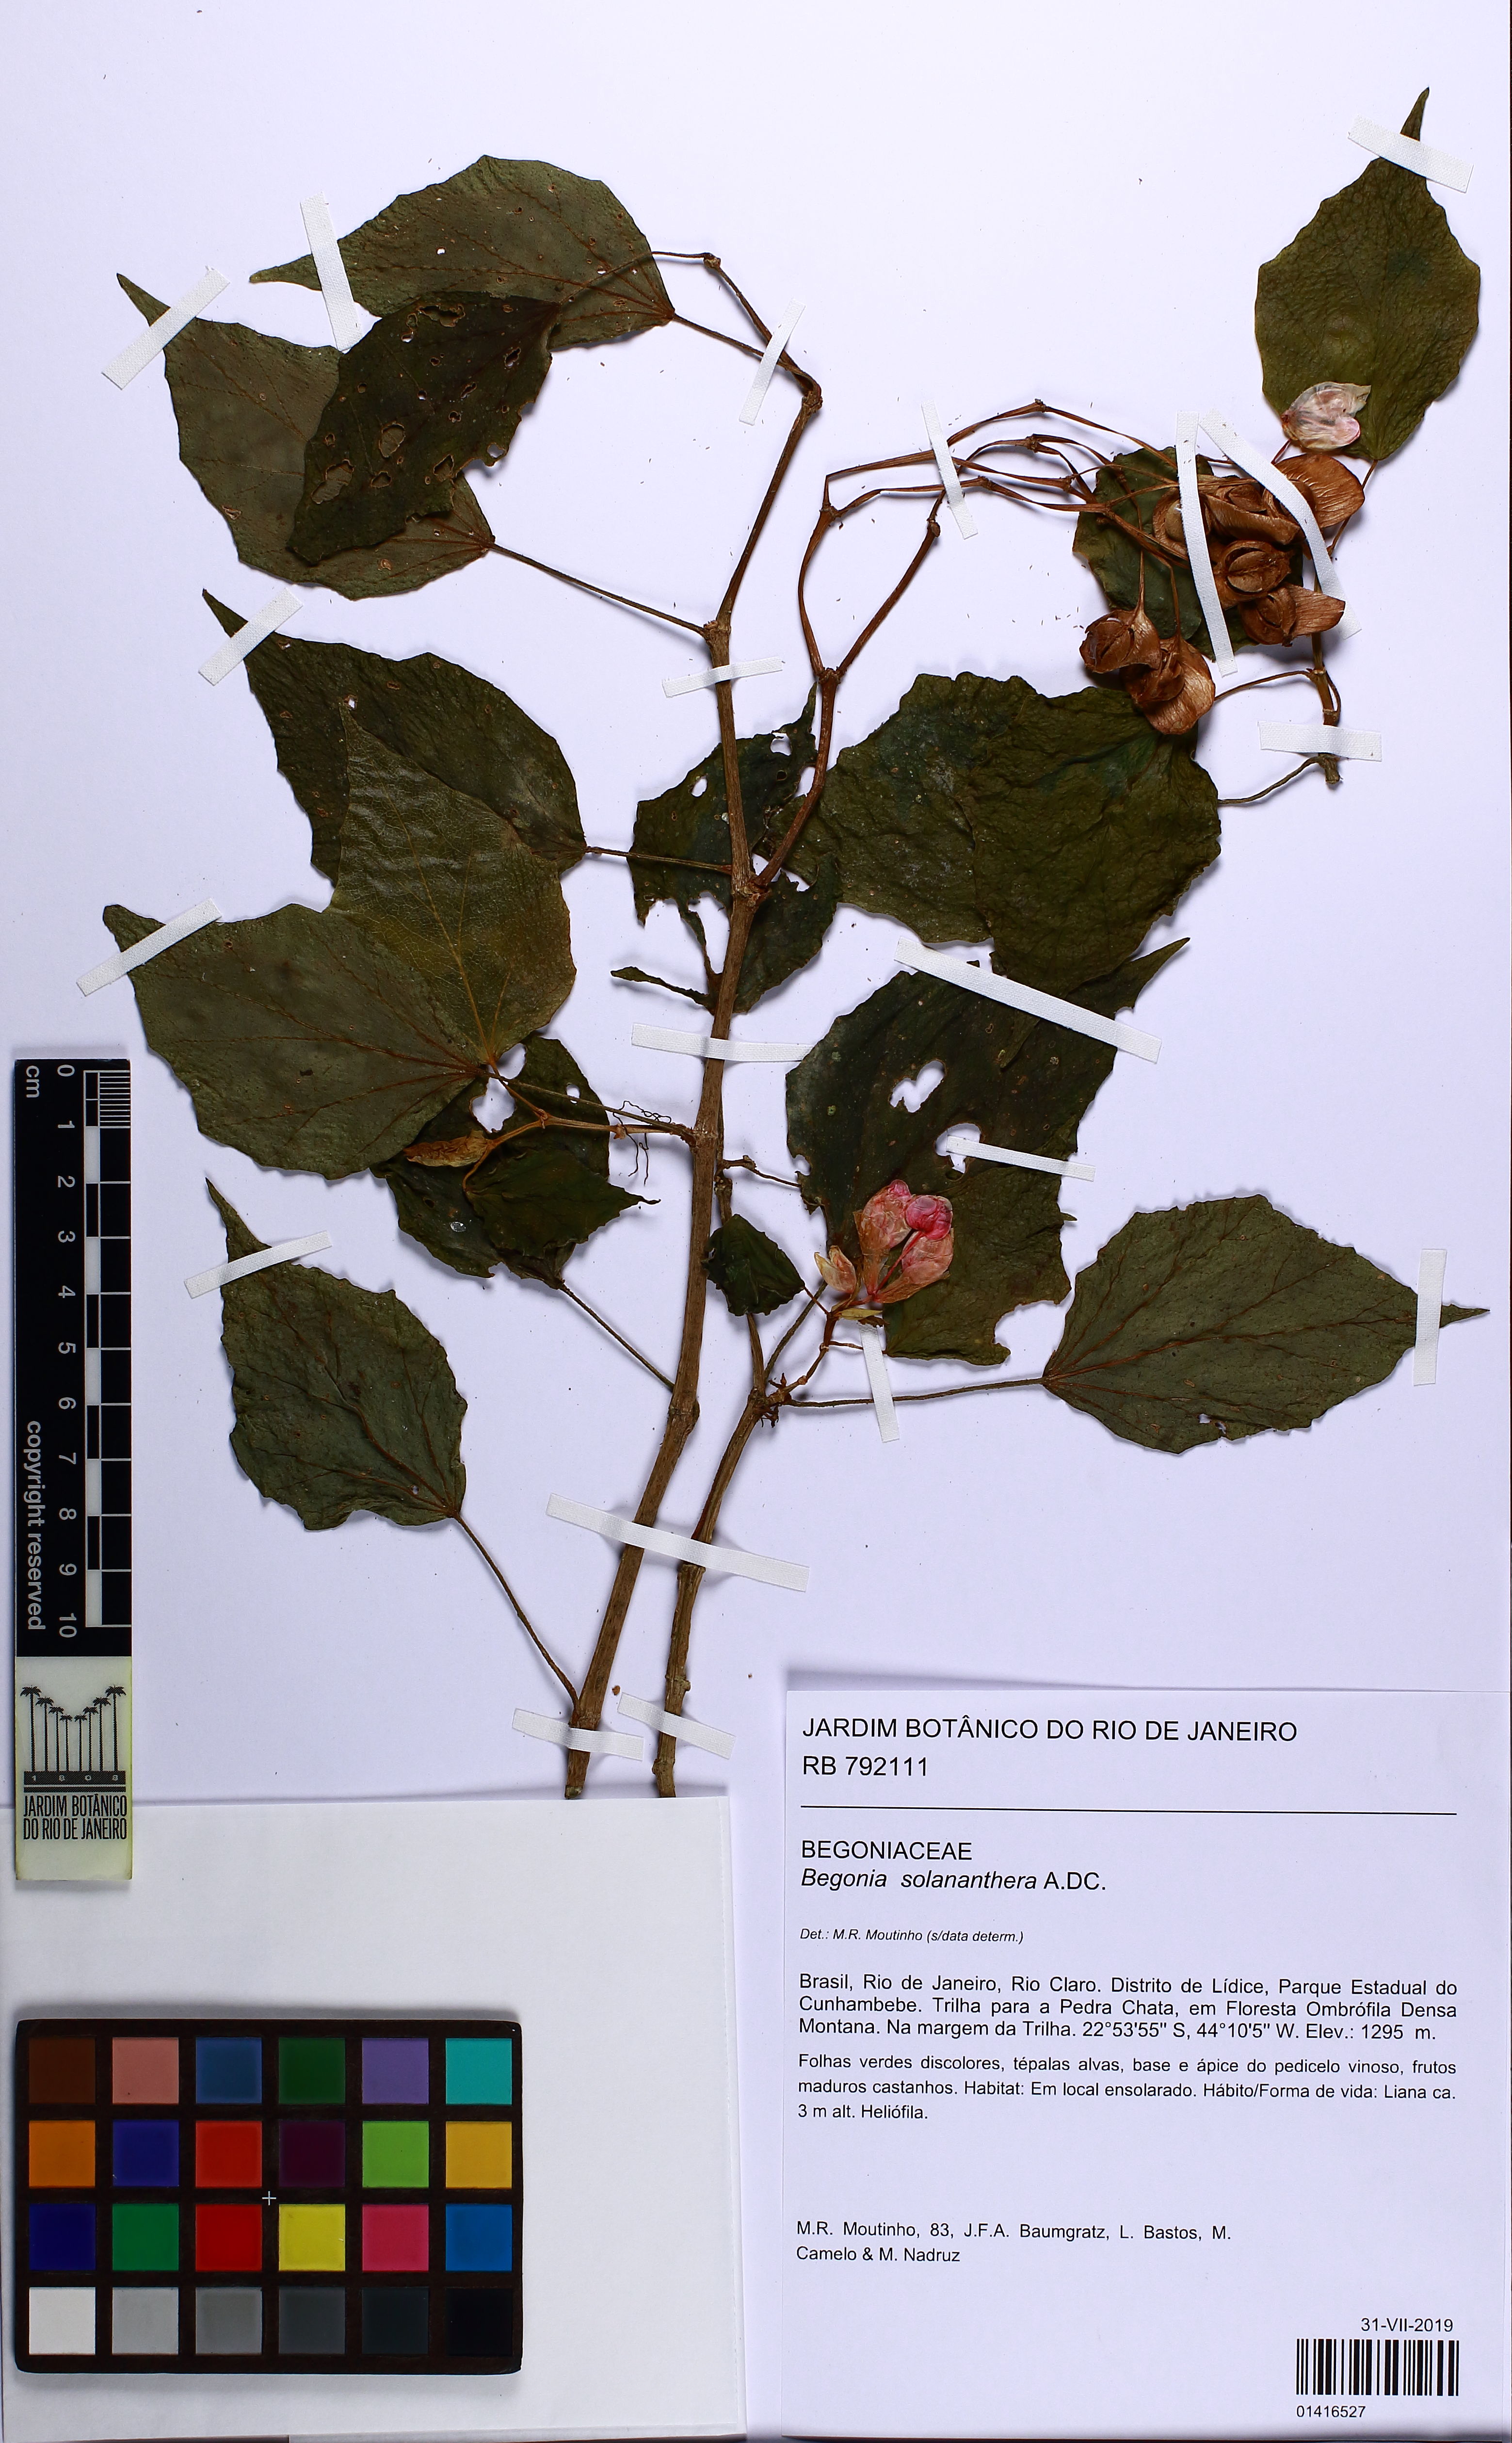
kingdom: Plantae
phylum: Tracheophyta
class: Magnoliopsida
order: Cucurbitales
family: Begoniaceae
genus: Begonia
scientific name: Begonia solananthera
